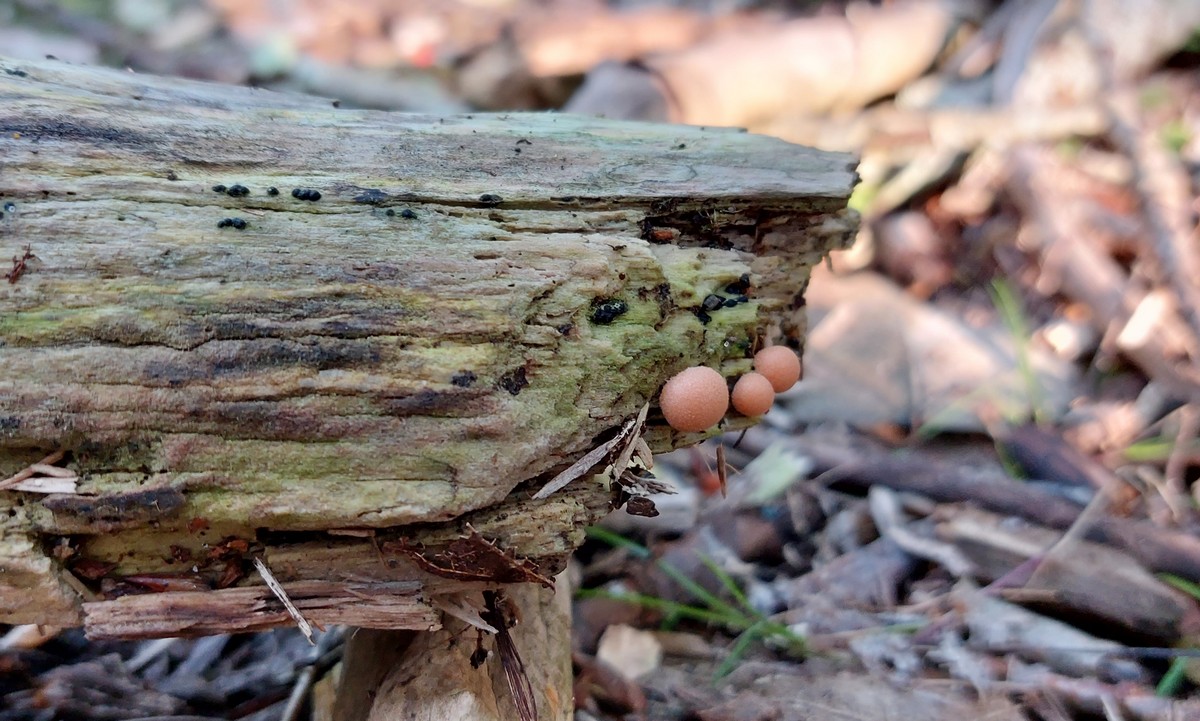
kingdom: Protozoa
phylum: Mycetozoa
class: Myxomycetes
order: Cribrariales
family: Tubiferaceae
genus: Lycogala
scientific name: Lycogala epidendrum
